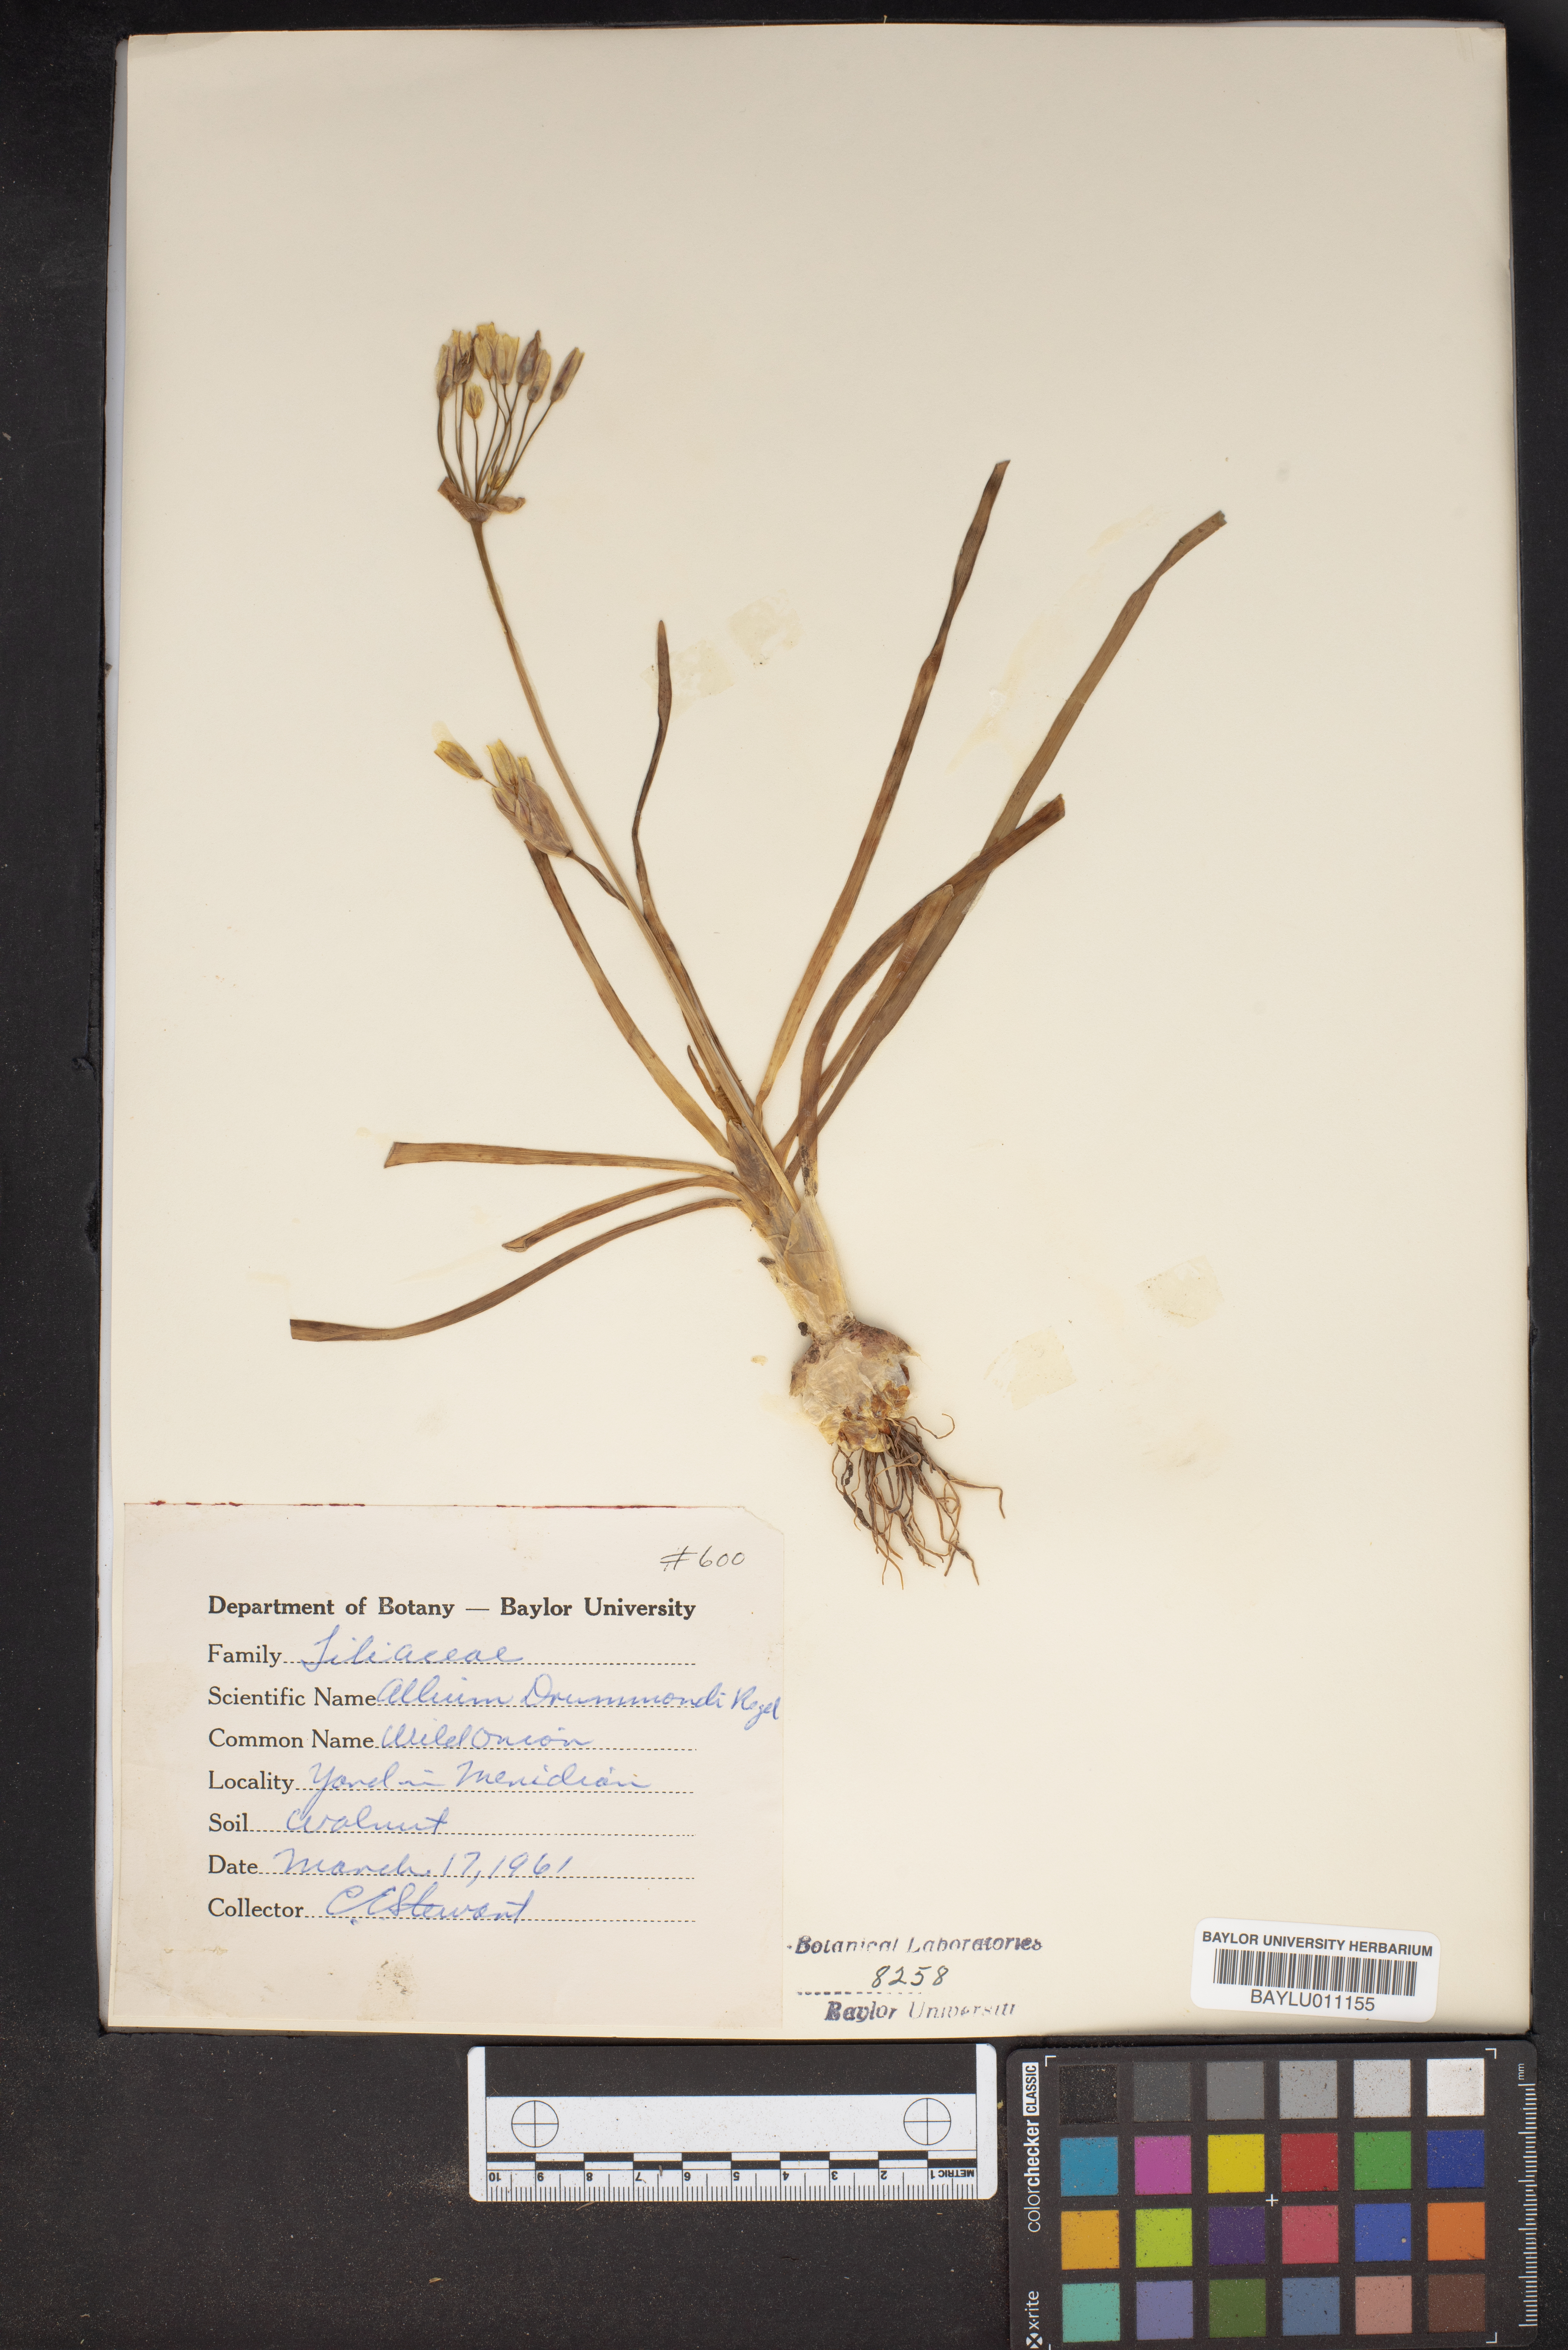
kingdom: Plantae
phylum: Tracheophyta
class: Liliopsida
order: Asparagales
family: Amaryllidaceae
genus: Allium
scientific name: Allium drummondii
